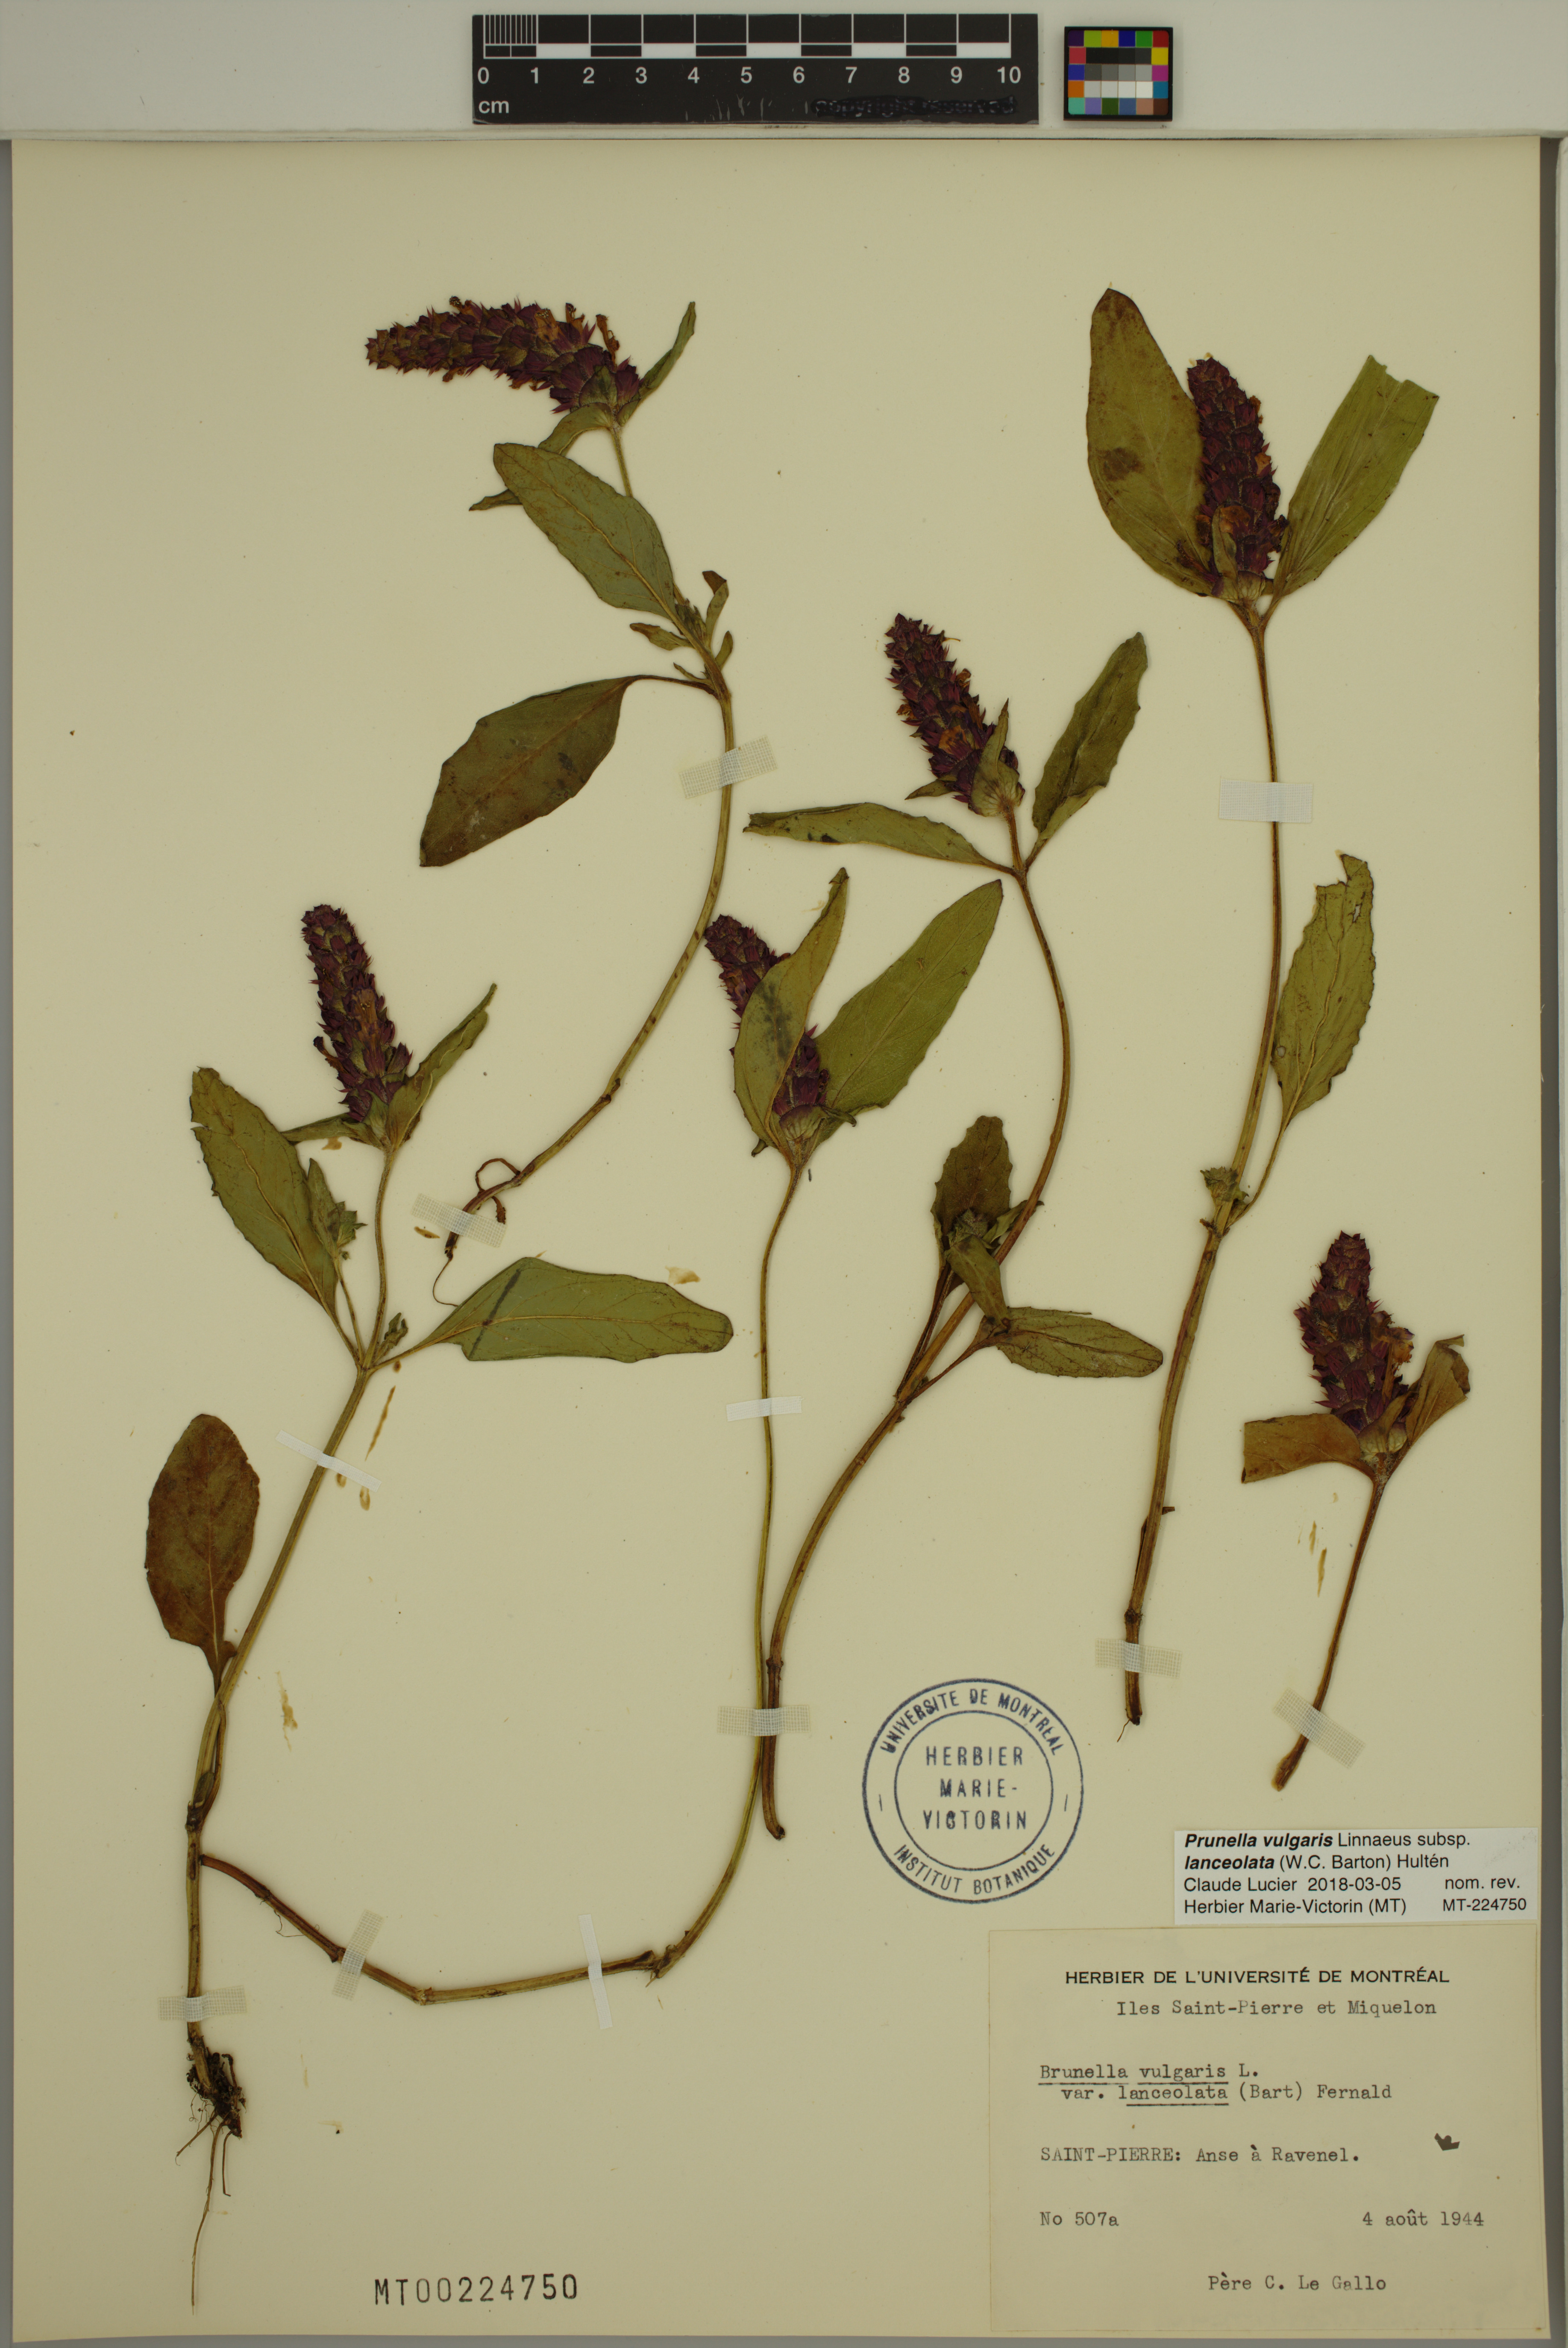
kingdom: Plantae
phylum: Tracheophyta
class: Magnoliopsida
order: Lamiales
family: Lamiaceae
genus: Prunella
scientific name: Prunella vulgaris
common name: Heal-all
